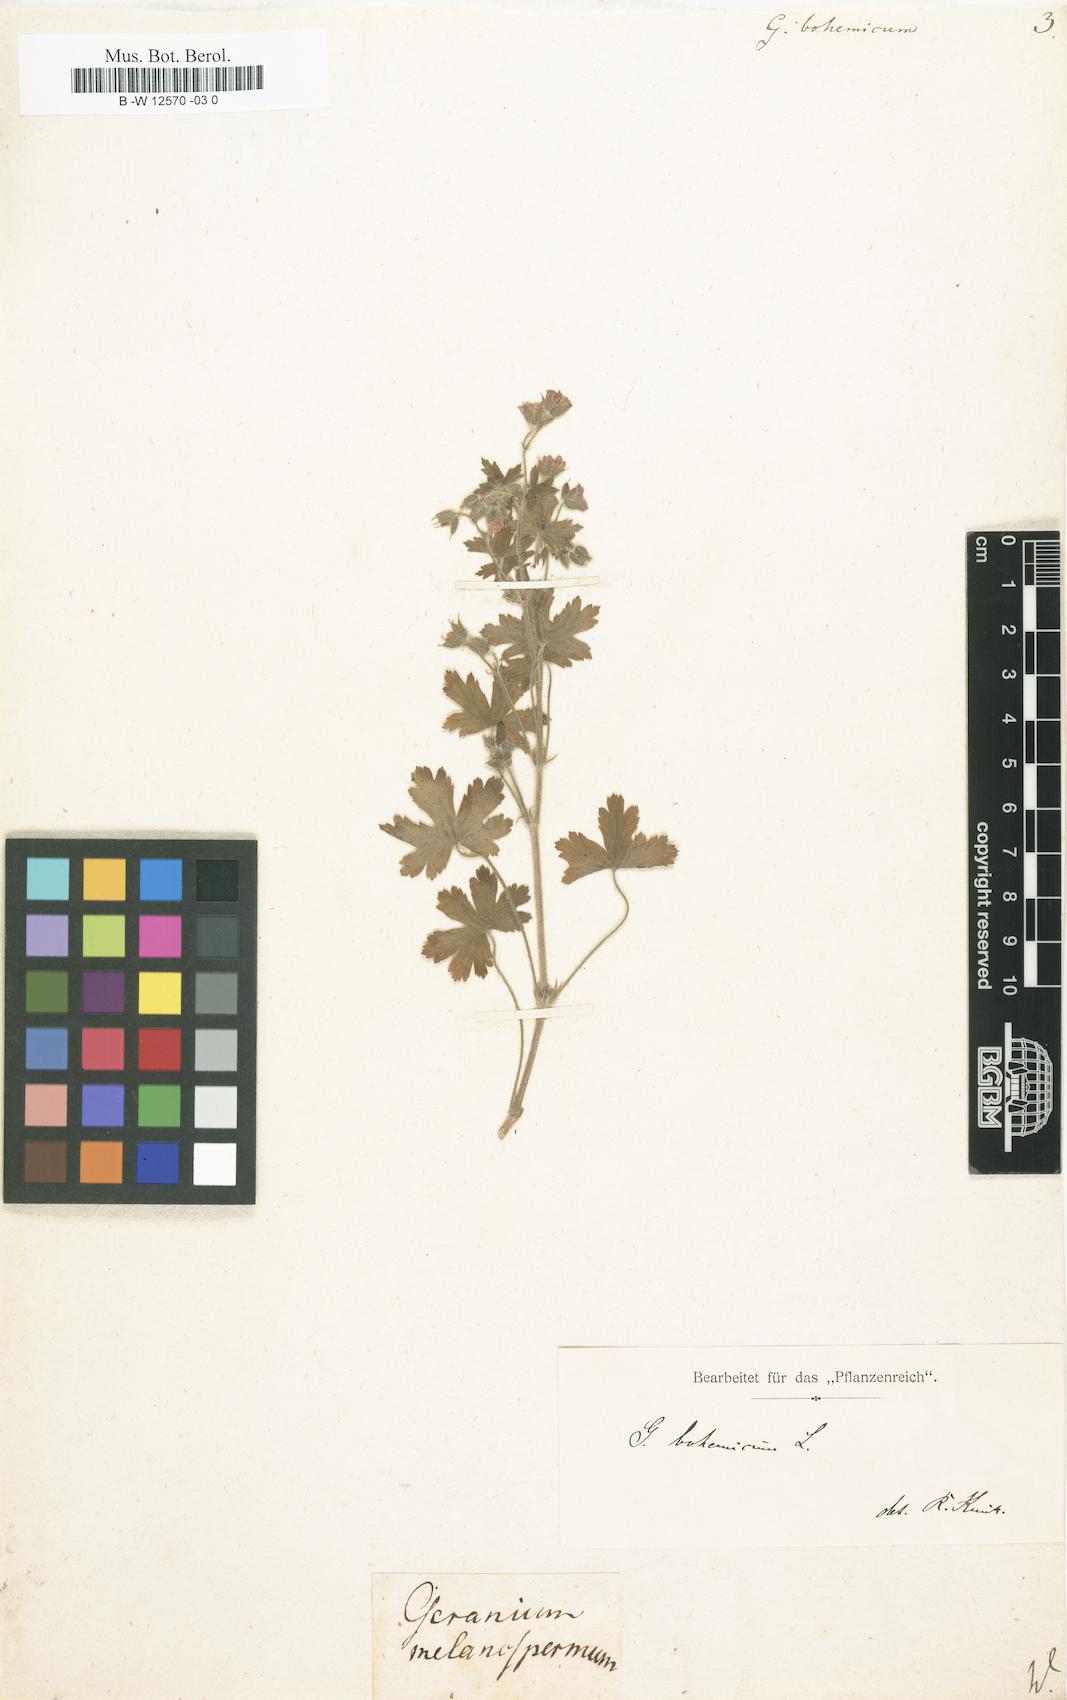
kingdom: Plantae
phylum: Tracheophyta
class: Magnoliopsida
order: Geraniales
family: Geraniaceae
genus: Geranium
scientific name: Geranium bohemicum
